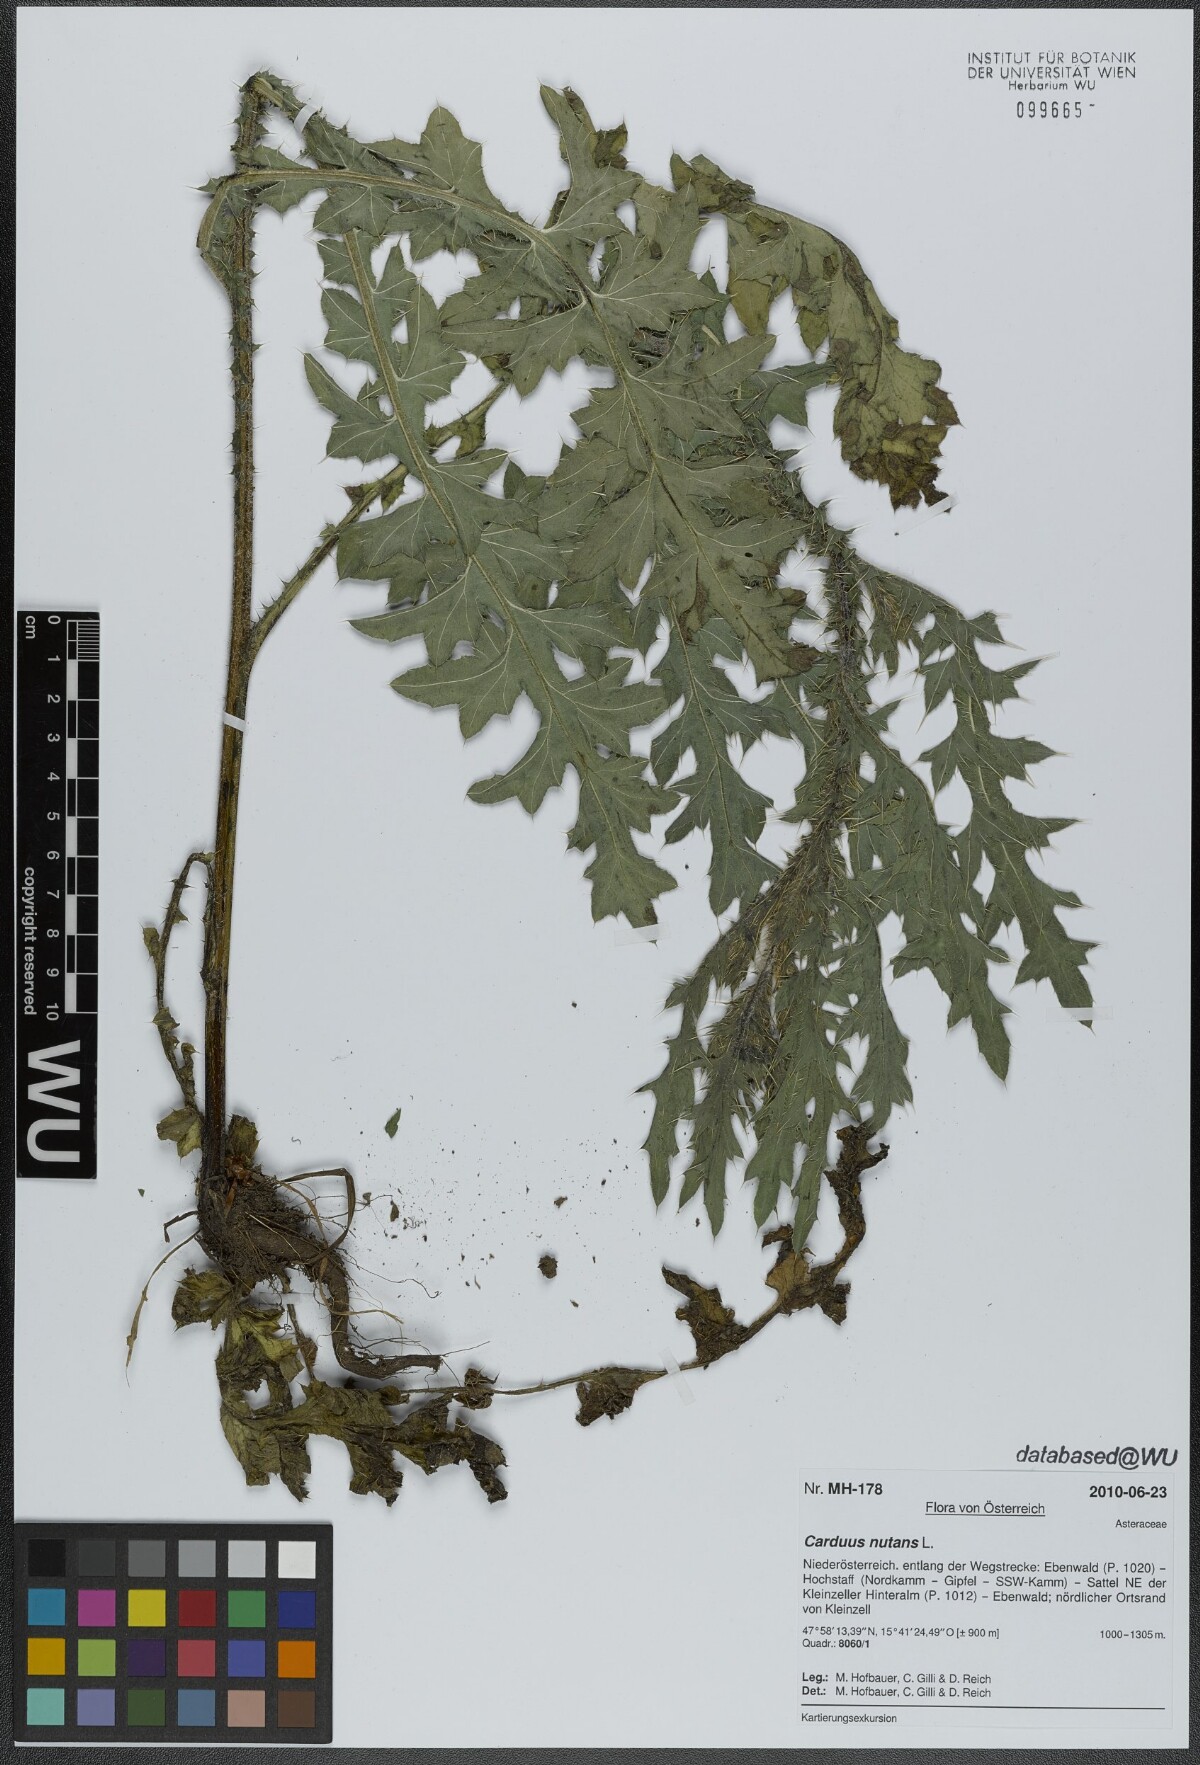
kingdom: Plantae
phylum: Tracheophyta
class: Magnoliopsida
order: Asterales
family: Asteraceae
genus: Carduus
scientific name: Carduus nutans
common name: Musk thistle
